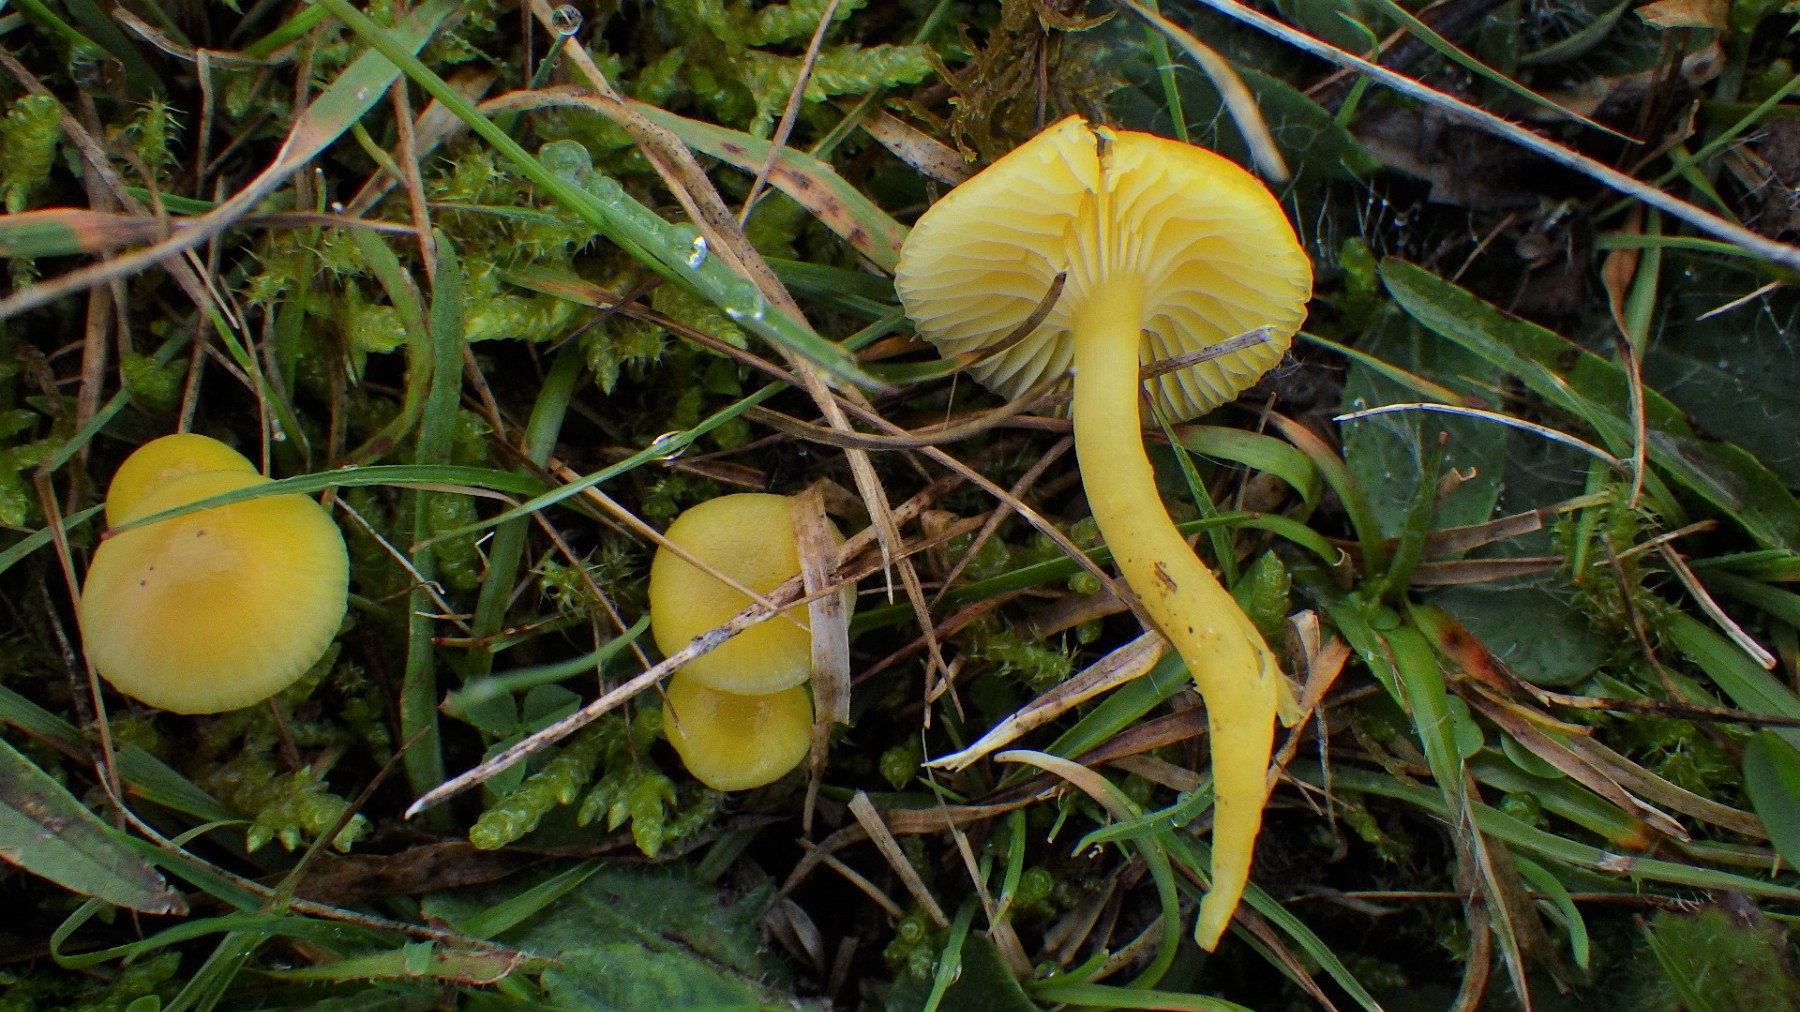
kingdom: Fungi
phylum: Basidiomycota
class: Agaricomycetes
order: Agaricales
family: Hygrophoraceae
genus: Hygrocybe
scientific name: Hygrocybe ceracea
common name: voksgul vokshat
